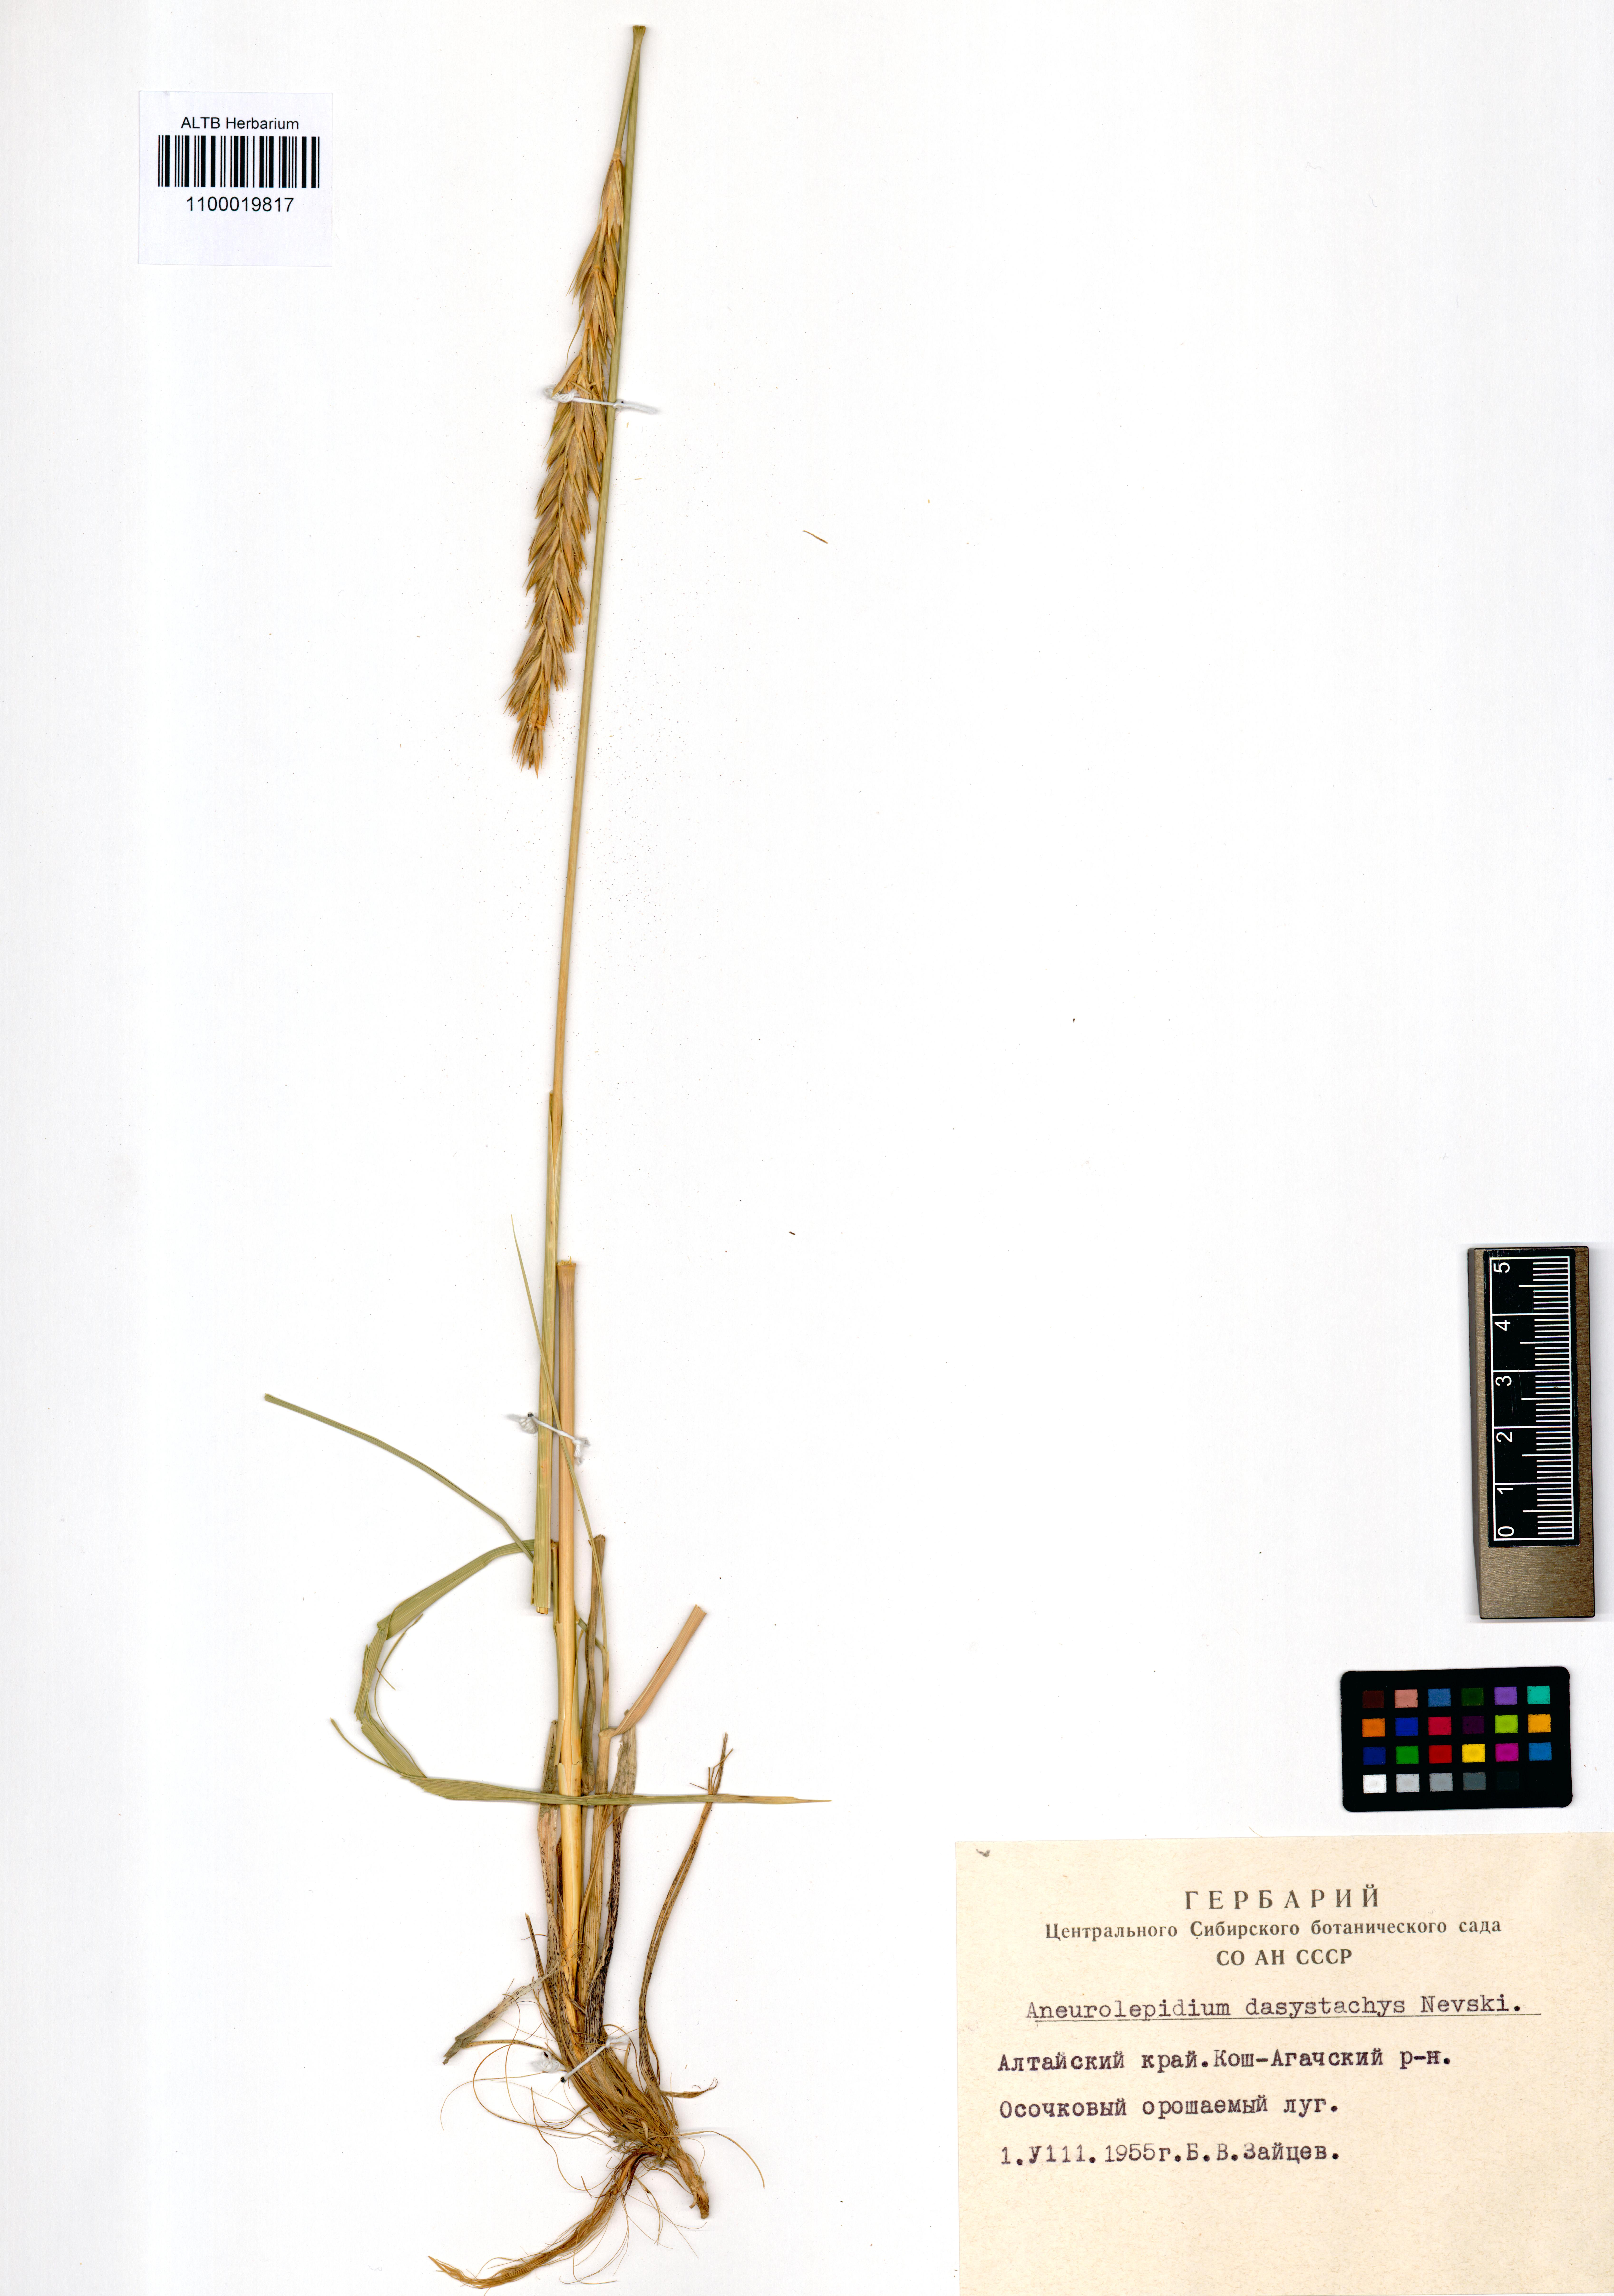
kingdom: Plantae
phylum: Tracheophyta
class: Liliopsida
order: Poales
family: Poaceae
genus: Leymus
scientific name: Leymus secalinus
